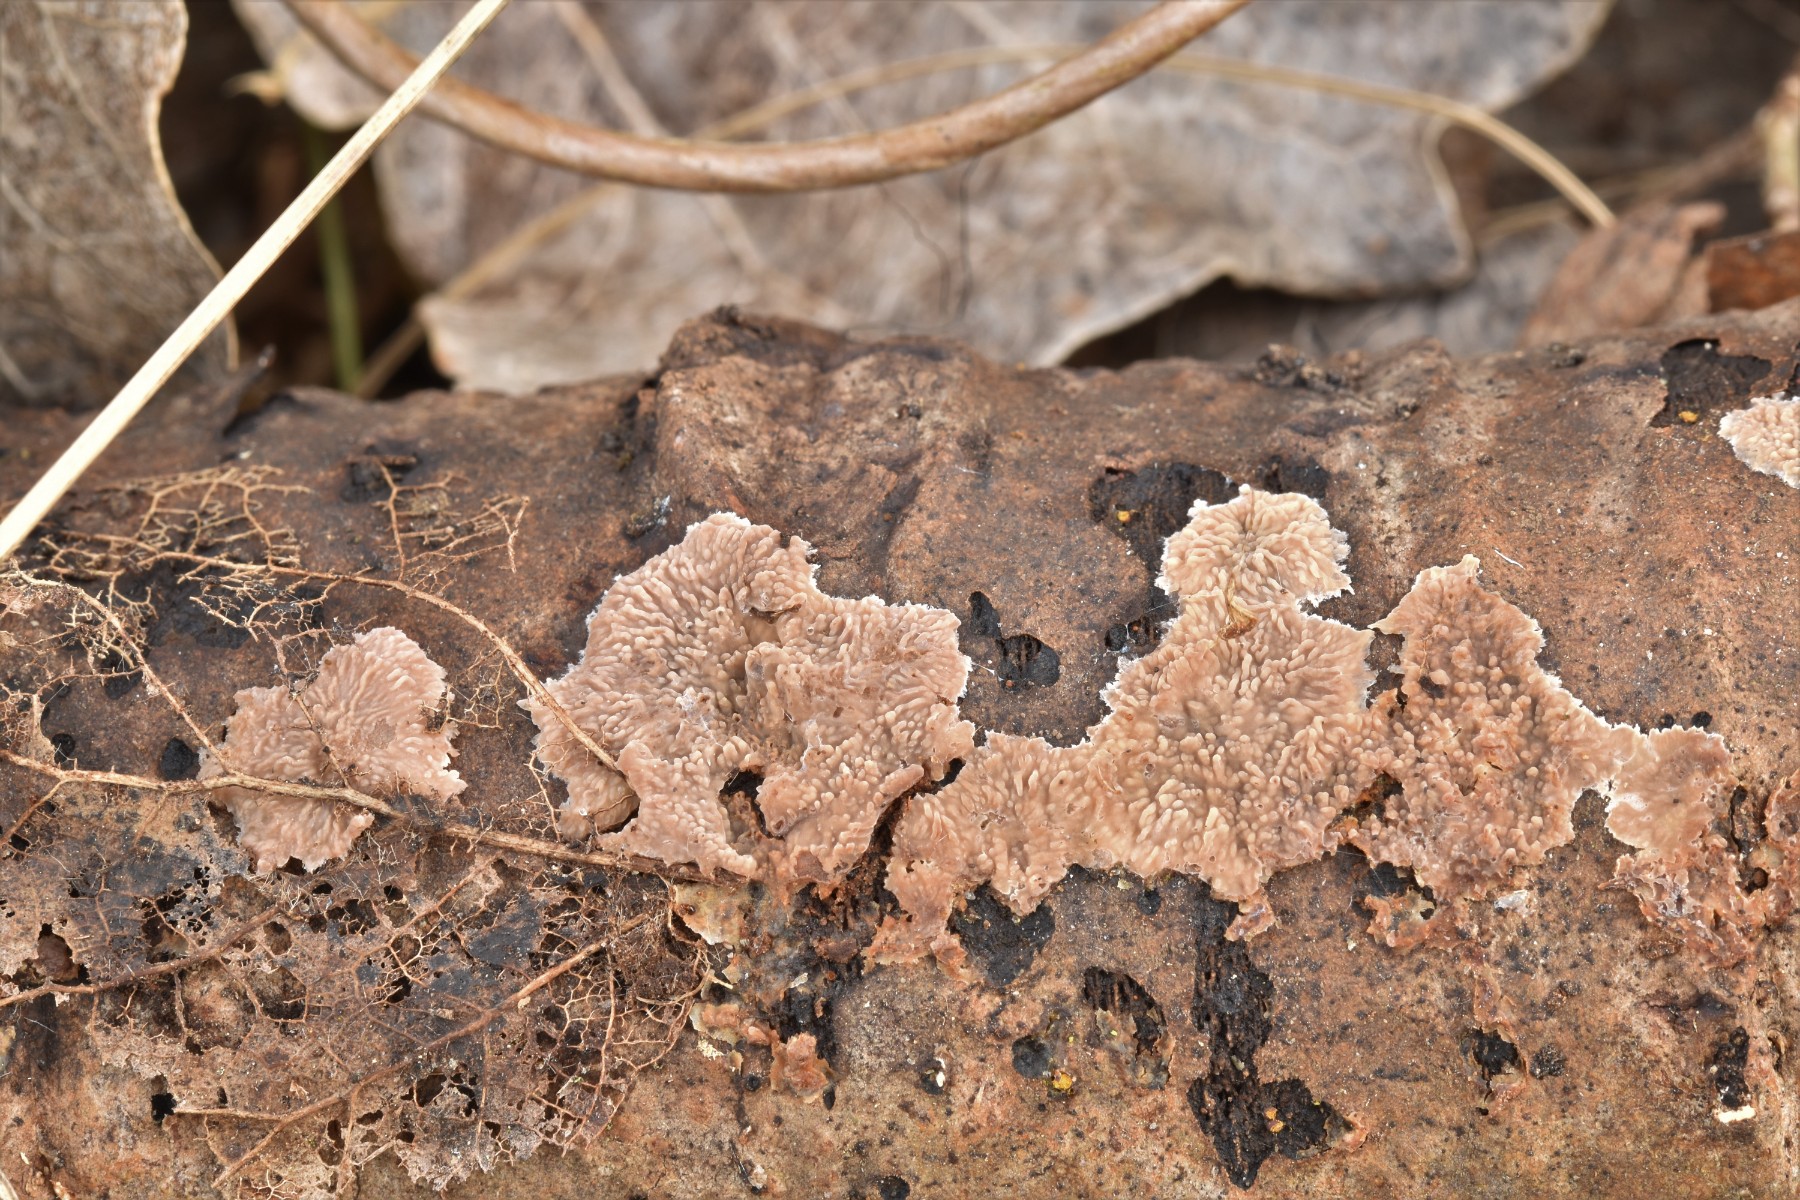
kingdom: Fungi
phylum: Basidiomycota
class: Agaricomycetes
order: Polyporales
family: Meruliaceae
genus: Phlebia
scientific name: Phlebia radiata
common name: stråle-åresvamp
